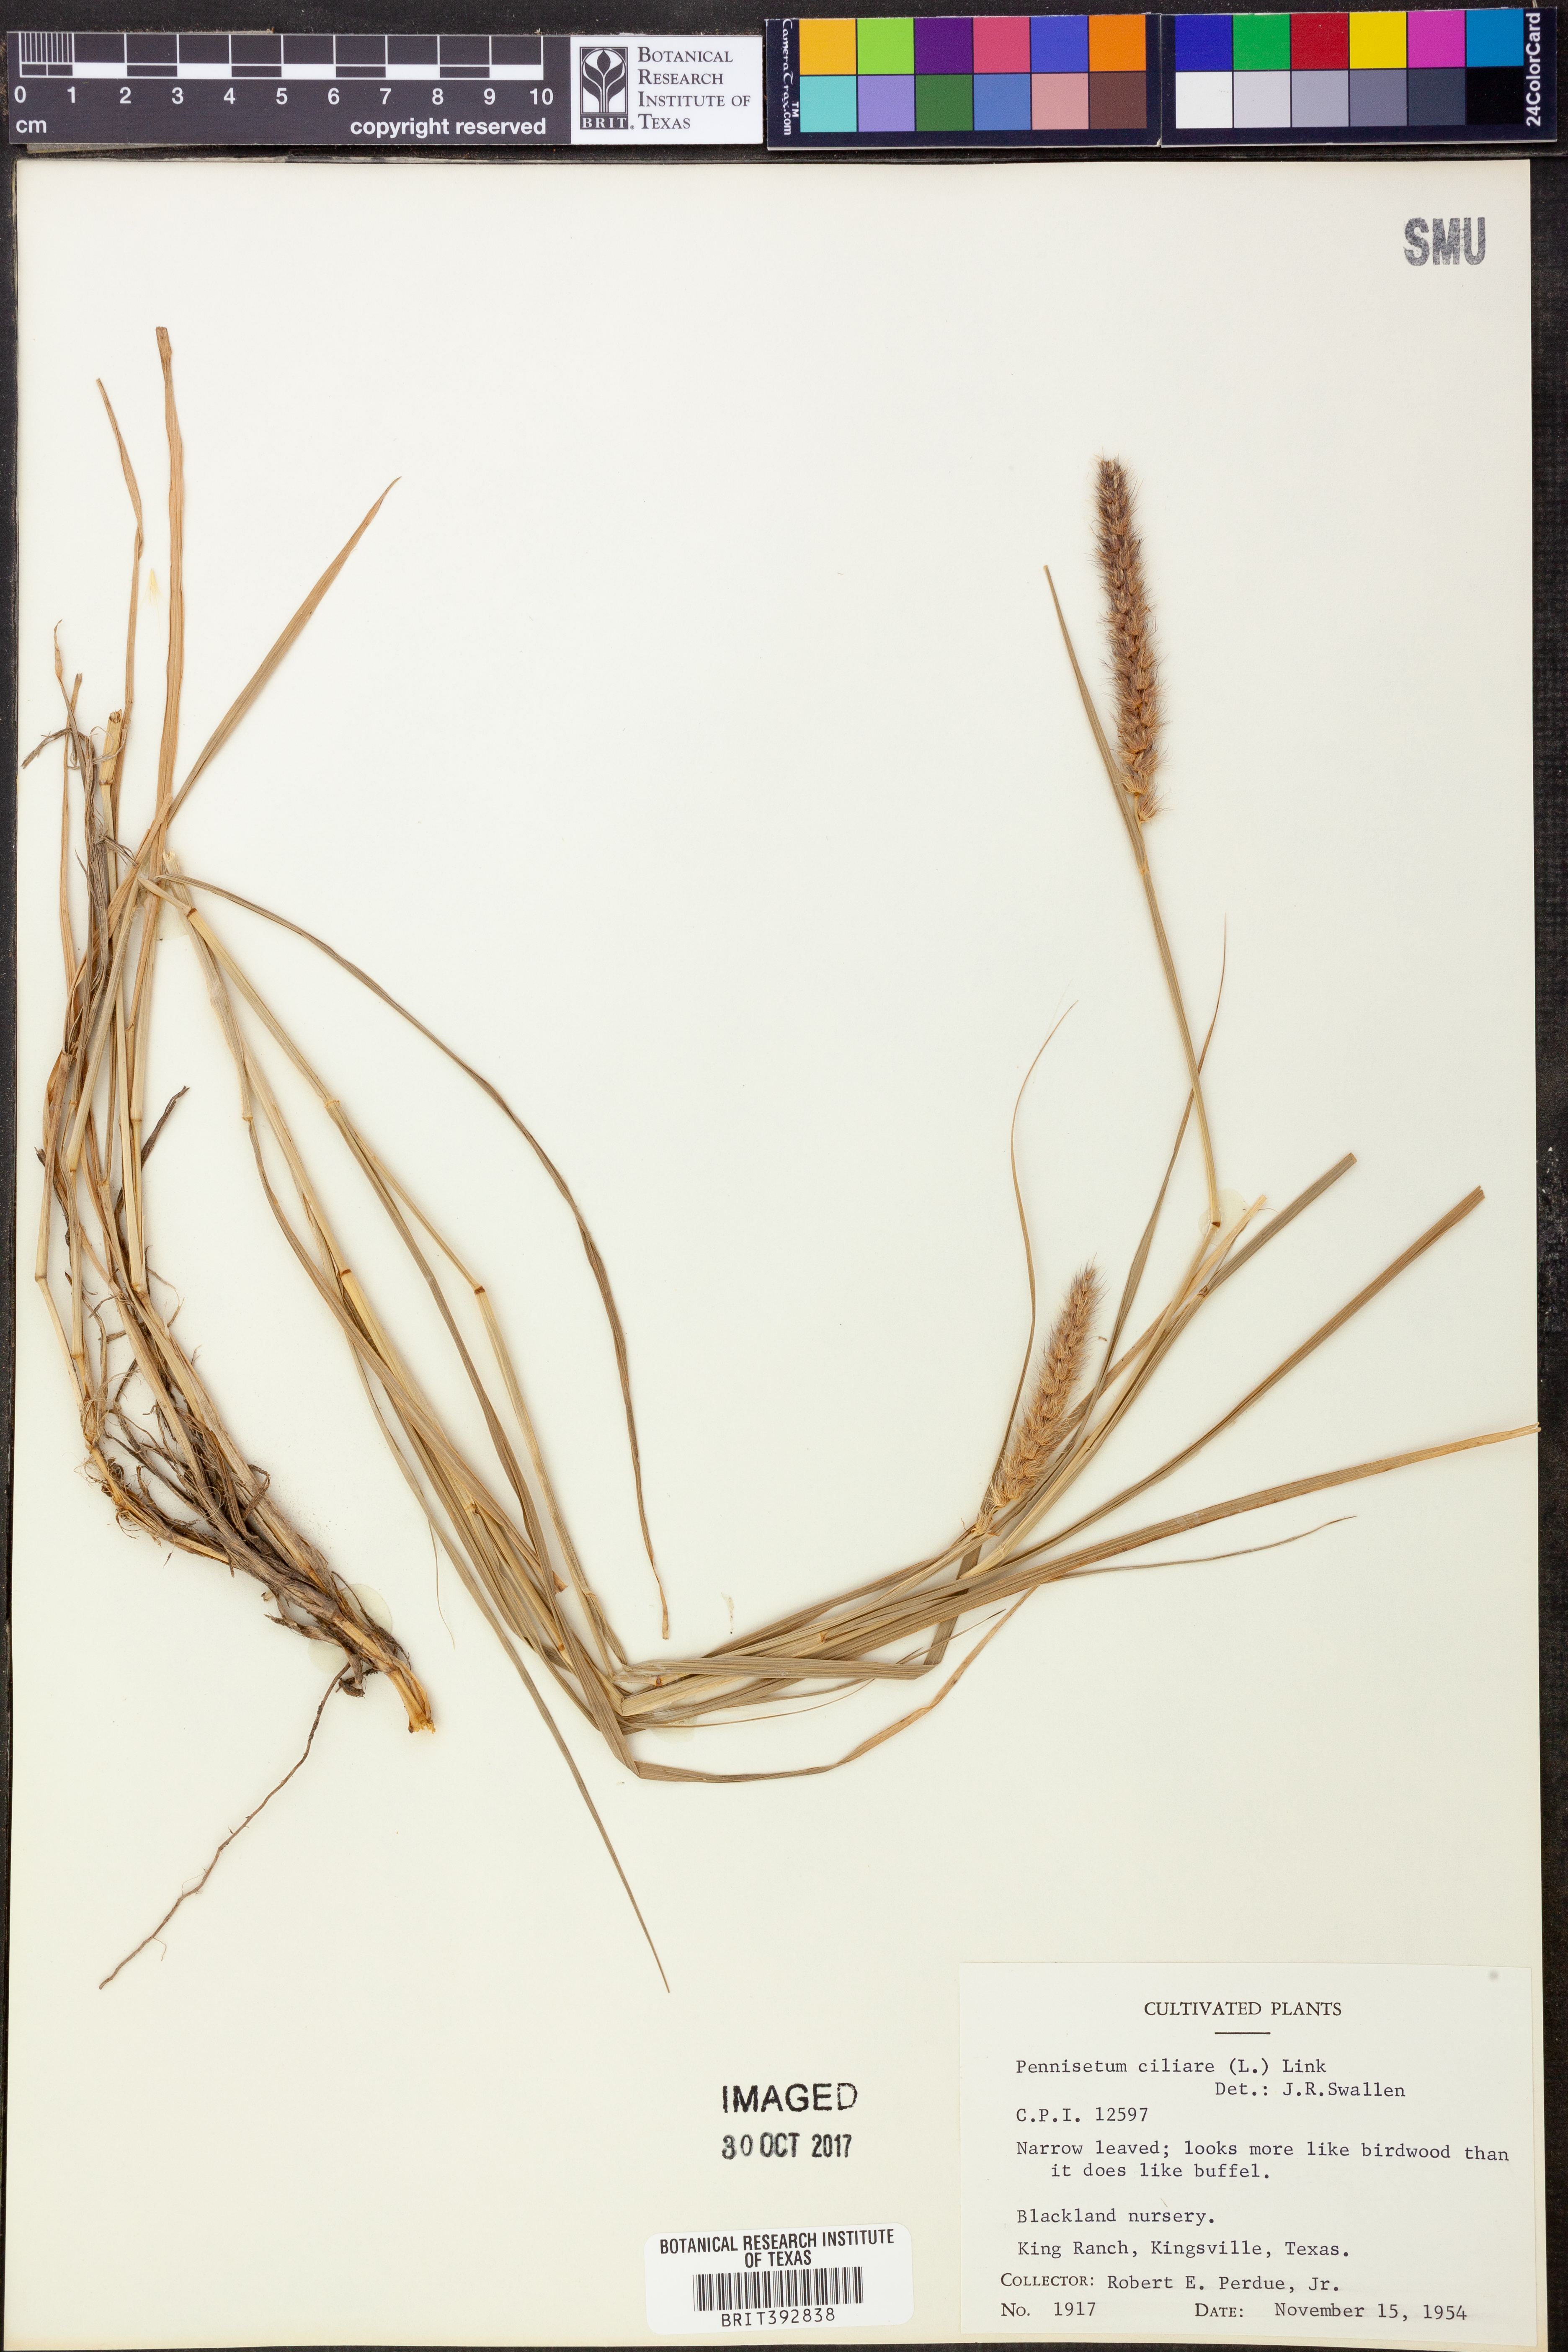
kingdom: Plantae
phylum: Tracheophyta
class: Liliopsida
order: Poales
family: Poaceae
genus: Cenchrus
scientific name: Cenchrus ciliaris
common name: Buffelgrass
